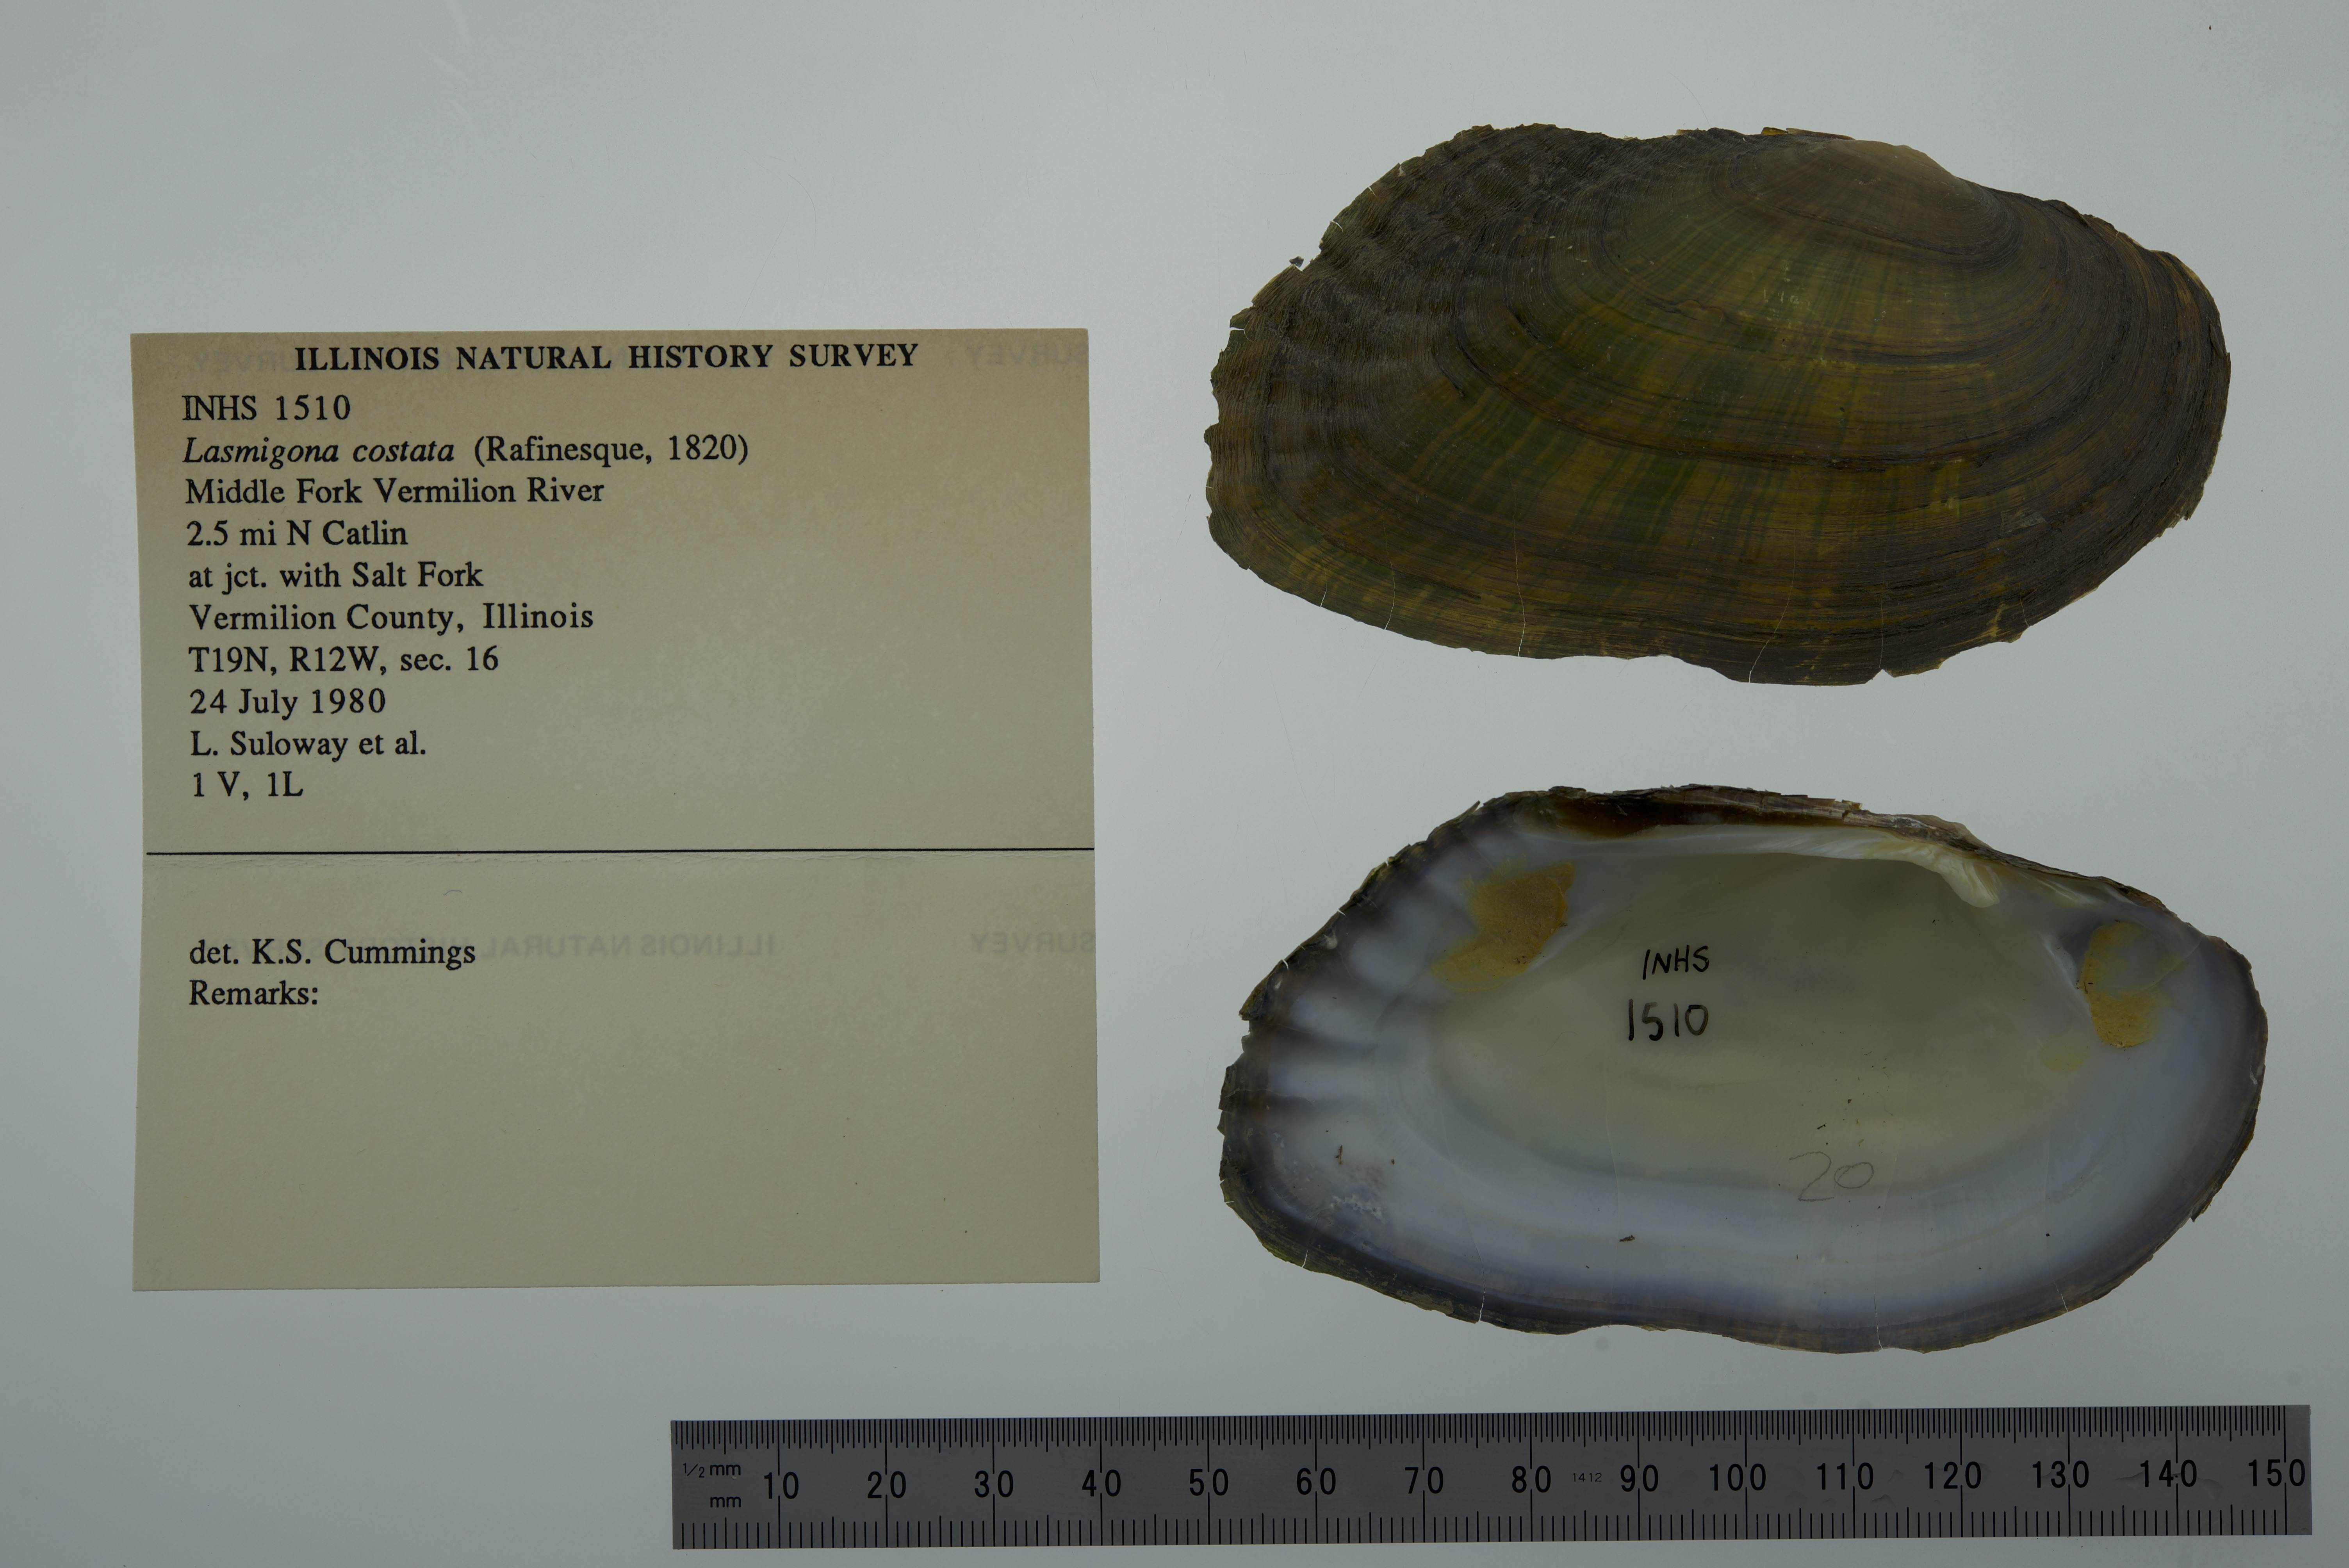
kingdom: Animalia
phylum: Mollusca
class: Bivalvia
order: Unionida
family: Unionidae
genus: Lasmigona
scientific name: Lasmigona costata
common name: Flutedshell
